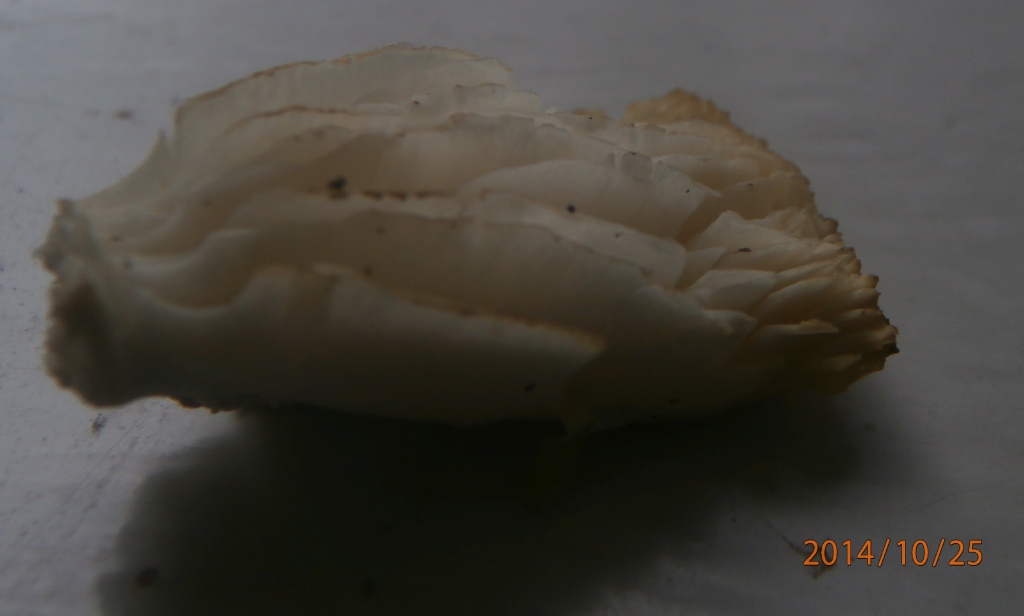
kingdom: Fungi
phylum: Basidiomycota
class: Agaricomycetes
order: Agaricales
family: Tricholomataceae
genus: Tricholoma
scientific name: Tricholoma umbonatum
